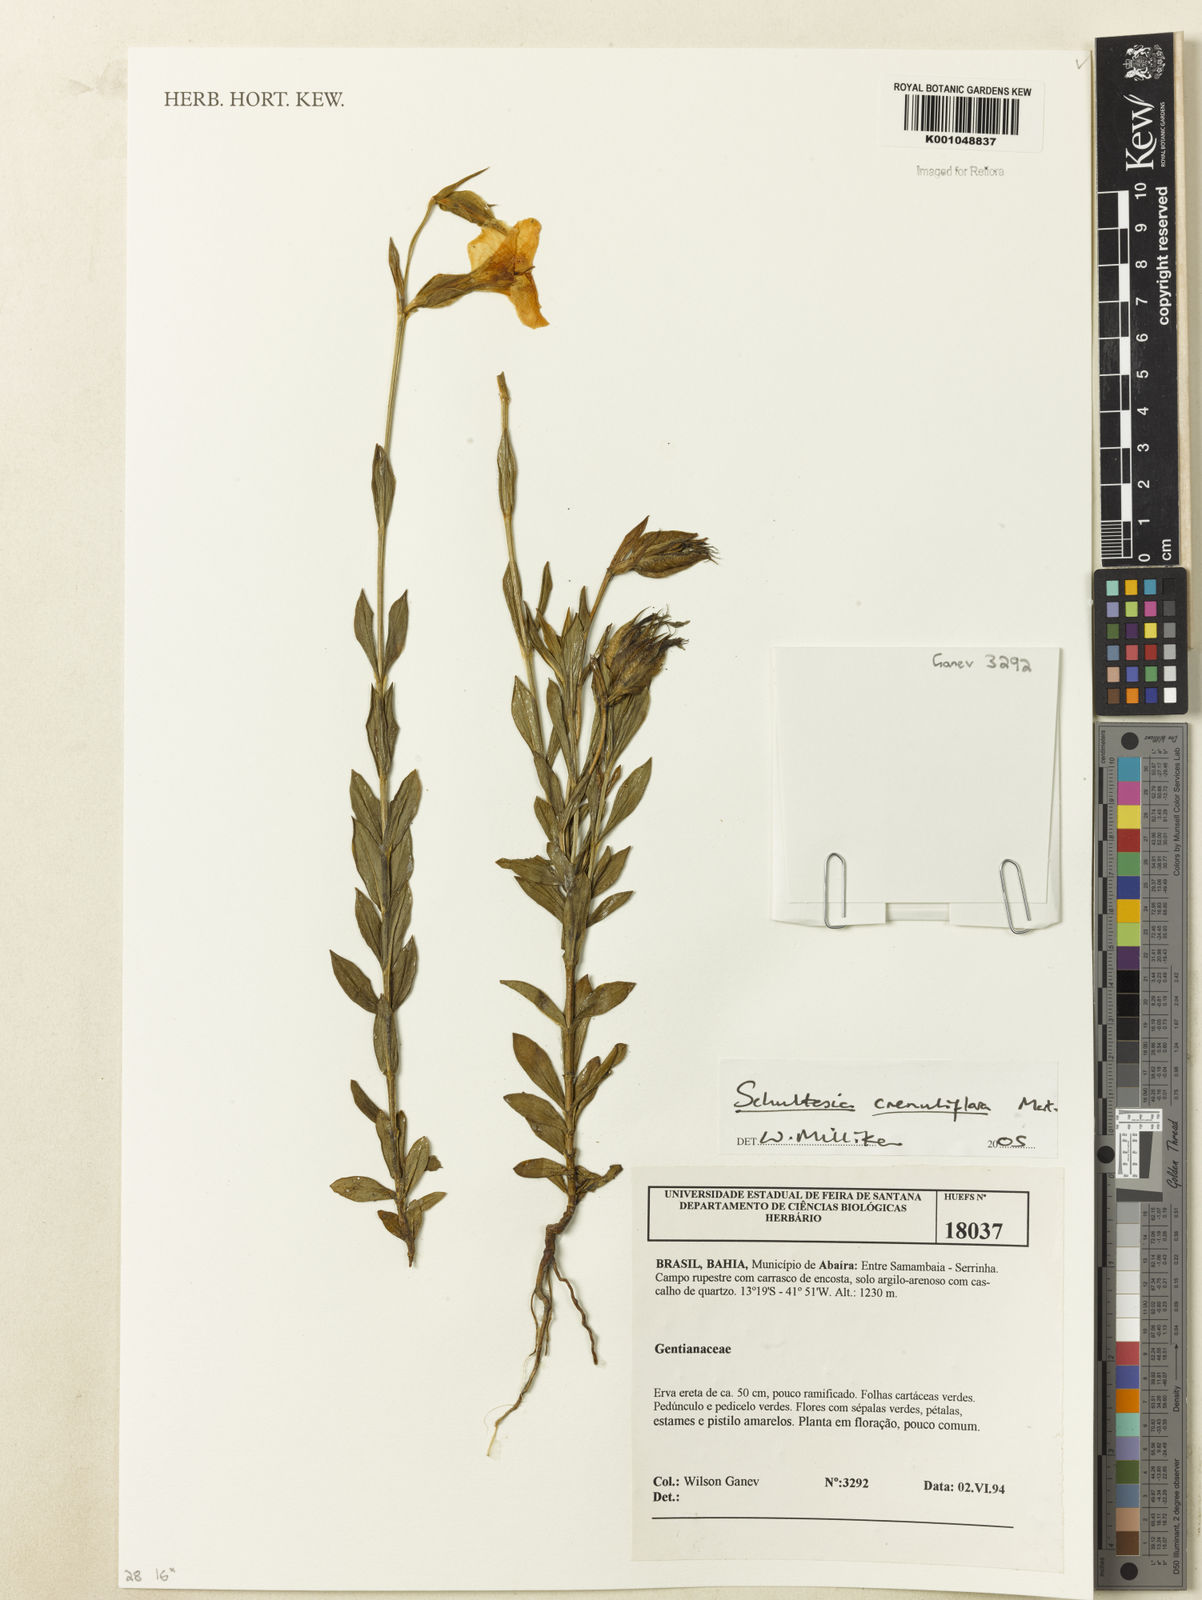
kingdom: Plantae
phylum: Tracheophyta
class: Magnoliopsida
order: Gentianales
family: Gentianaceae
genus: Schultesia
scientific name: Schultesia crenuliflora
